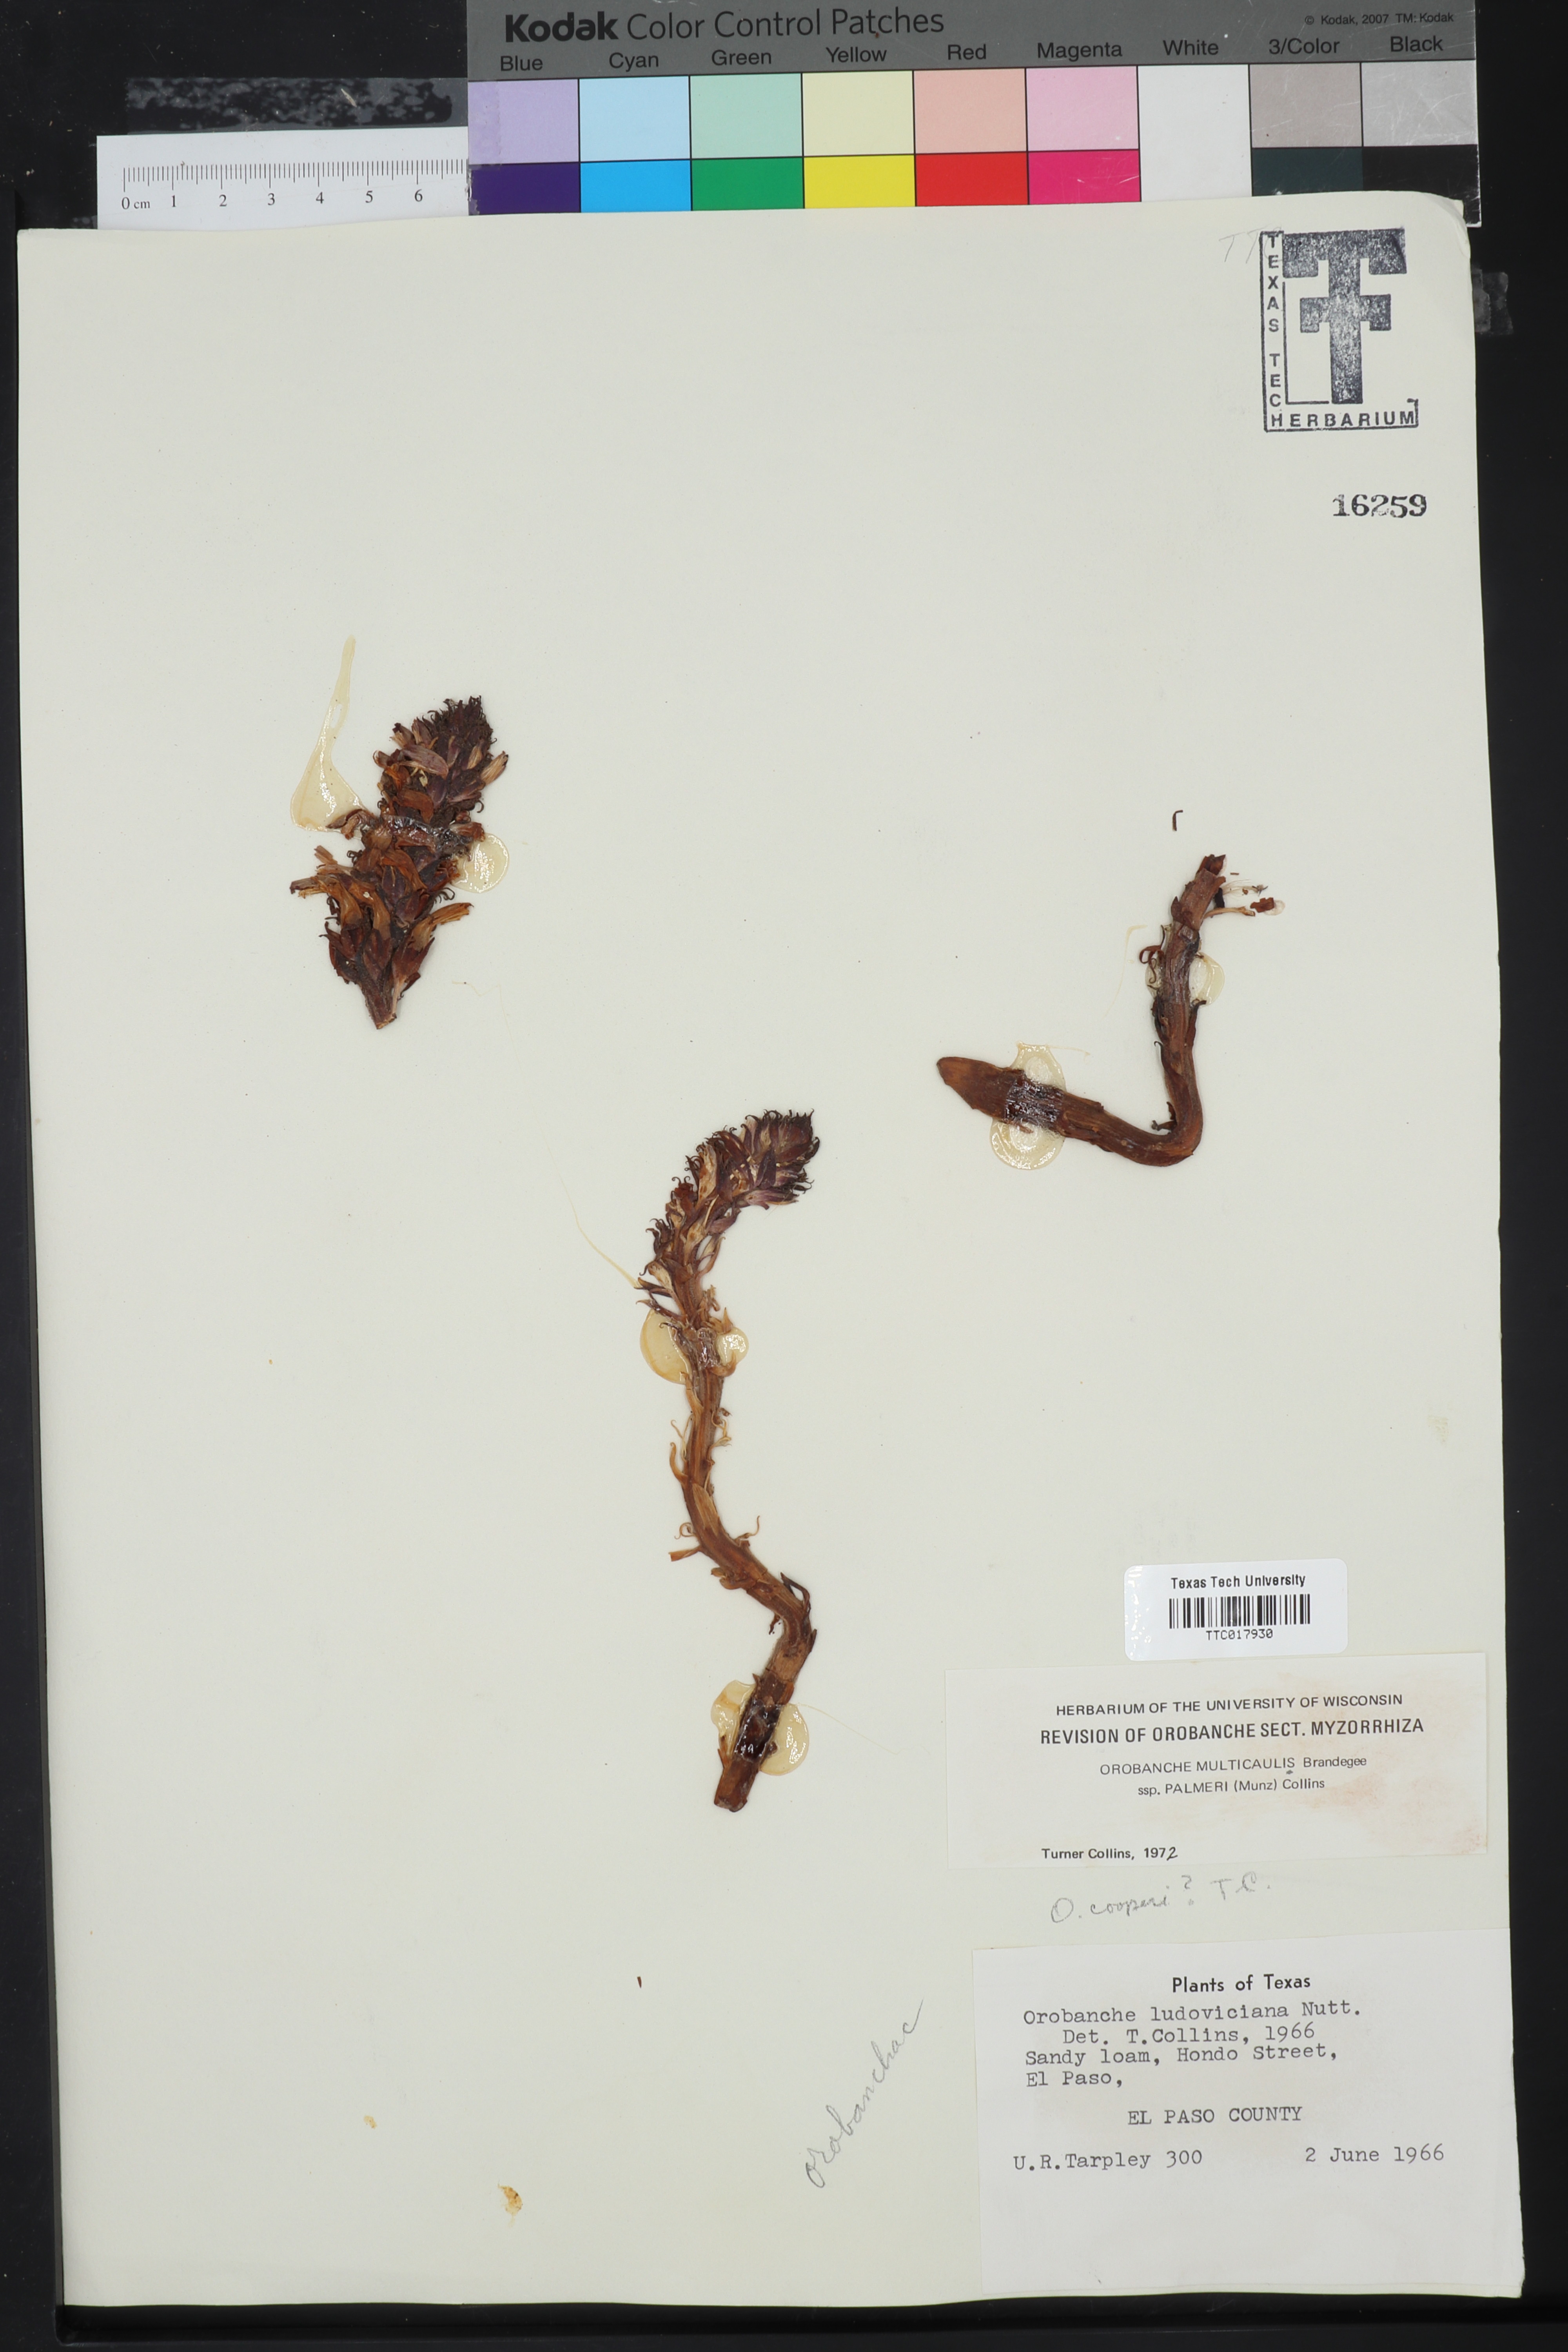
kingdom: Plantae
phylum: Tracheophyta
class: Magnoliopsida
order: Lamiales
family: Orobanchaceae
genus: Aphyllon
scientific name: Aphyllon cooperi
